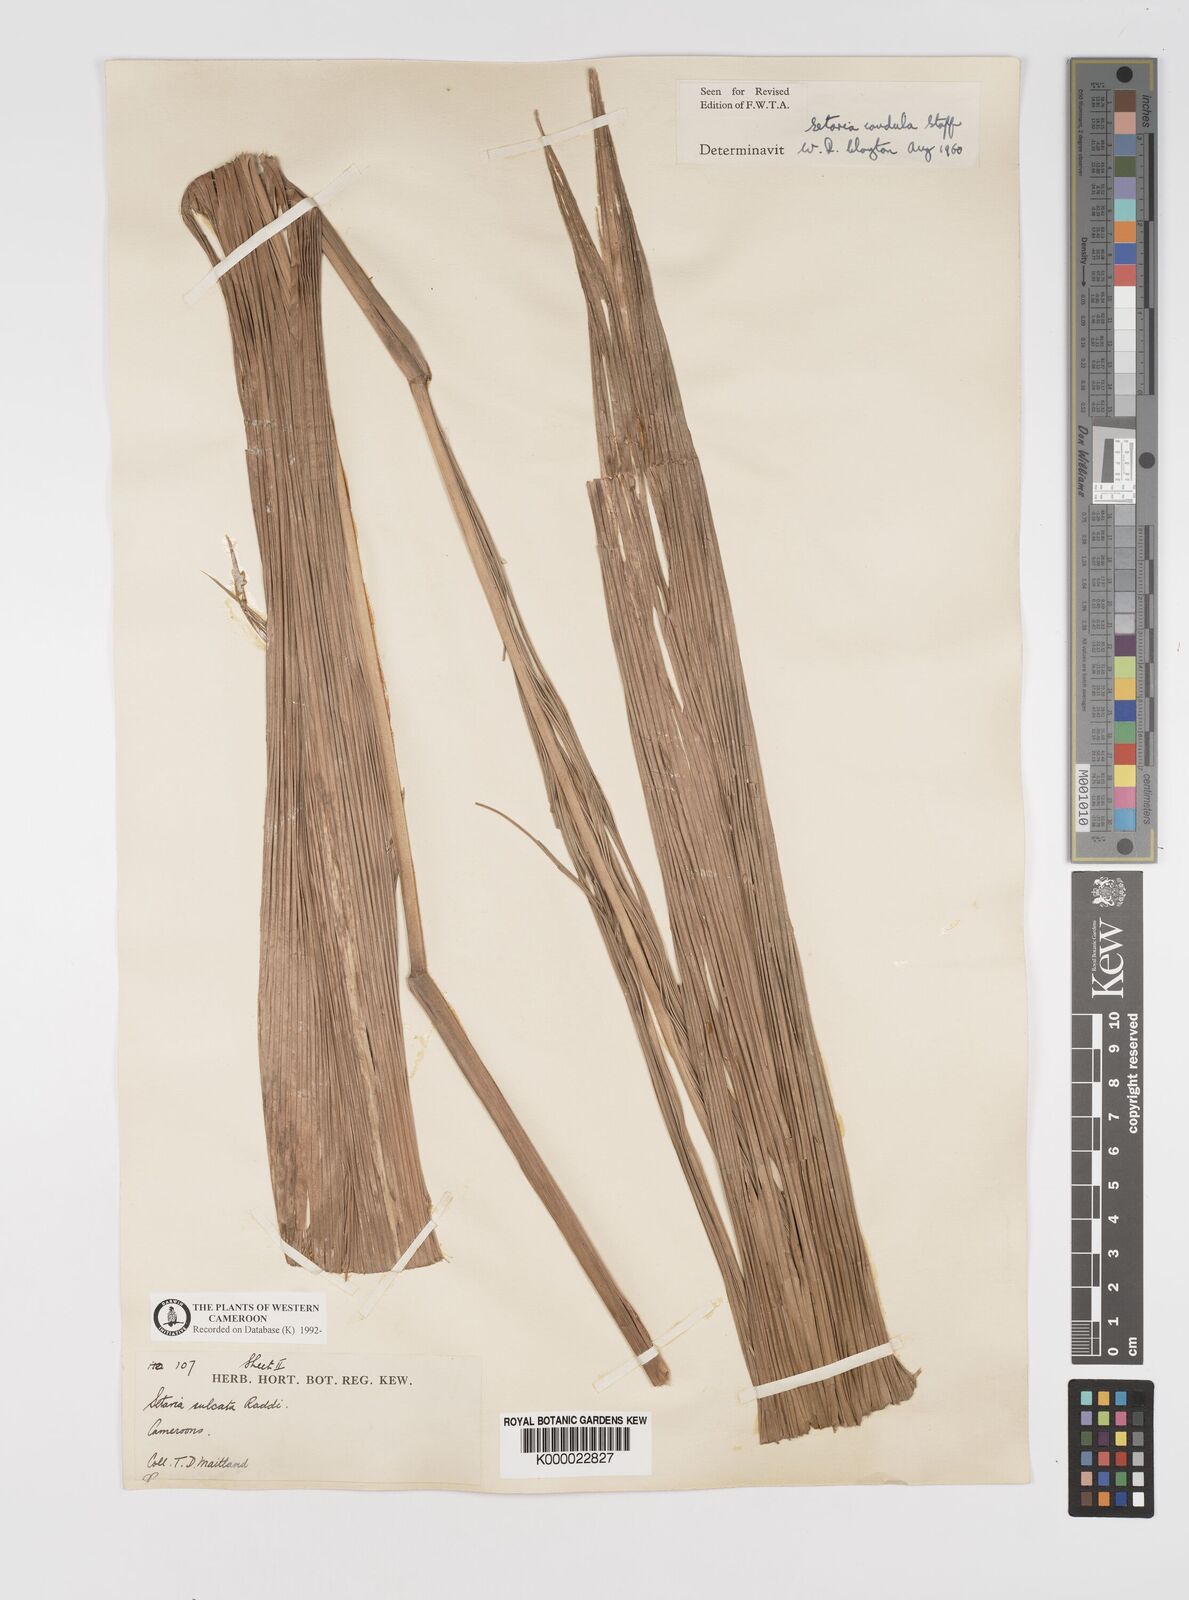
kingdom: Plantae
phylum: Tracheophyta
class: Liliopsida
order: Poales
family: Poaceae
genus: Setaria
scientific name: Setaria poiretiana
